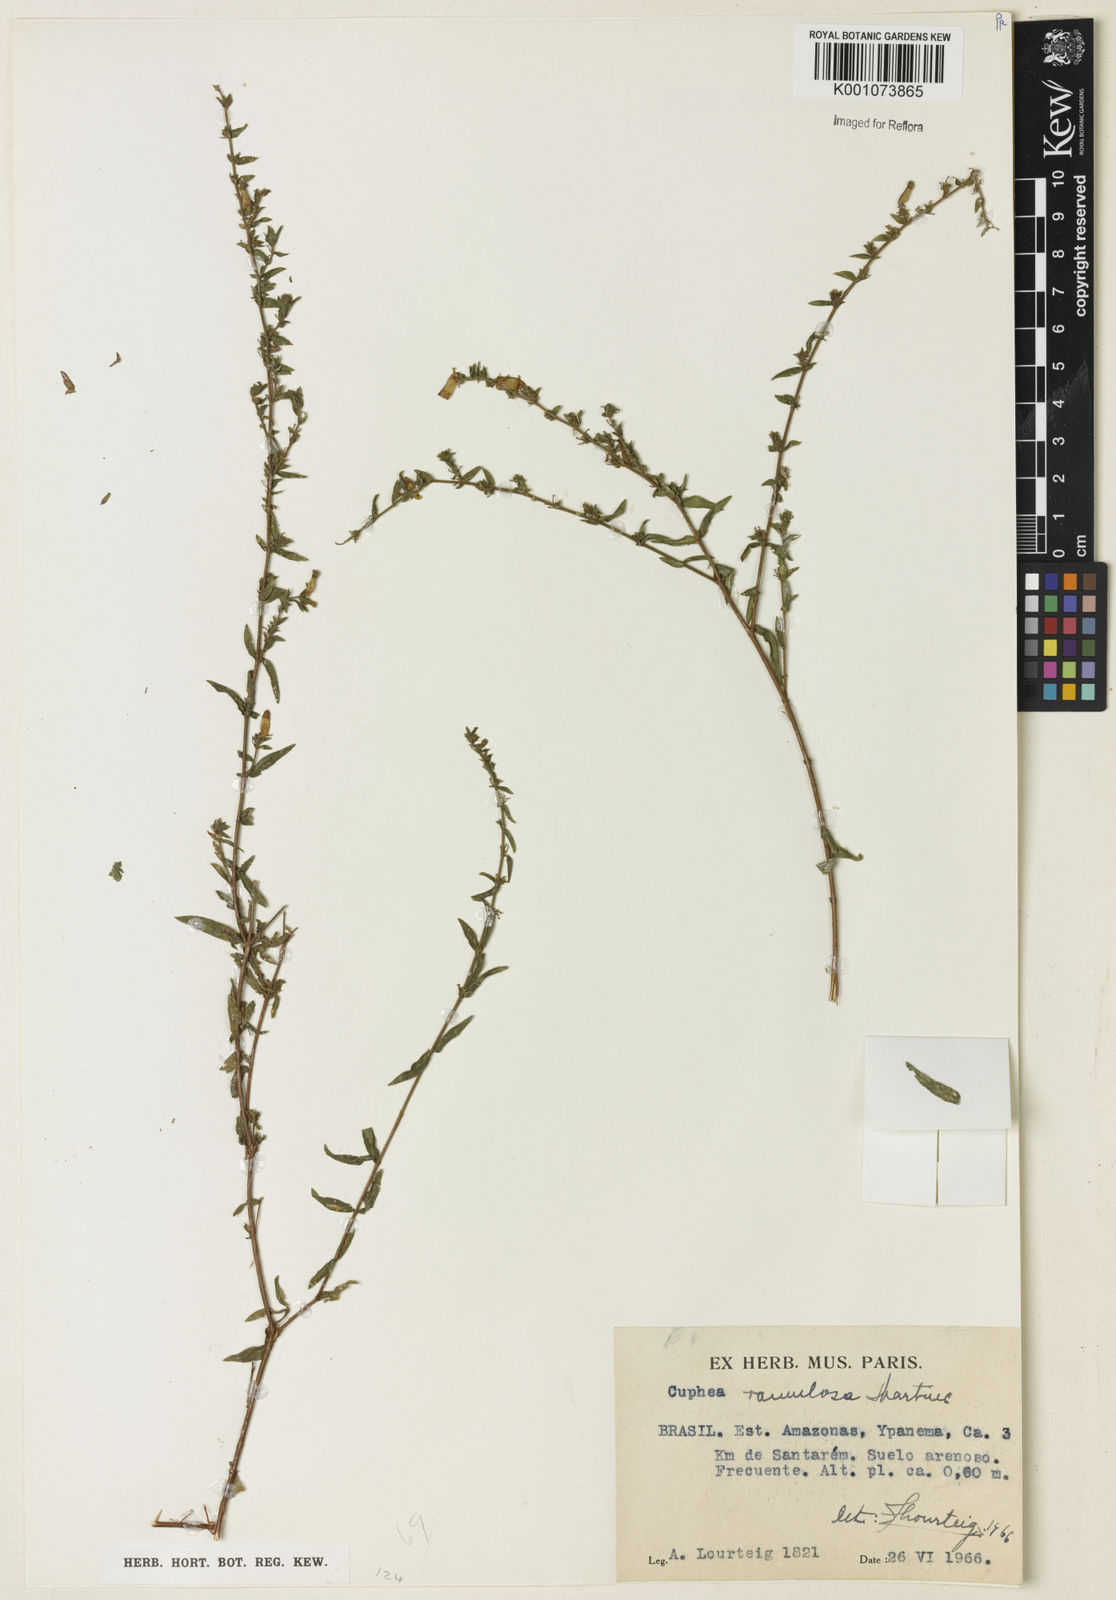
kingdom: Plantae
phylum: Tracheophyta
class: Magnoliopsida
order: Myrtales
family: Lythraceae
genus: Cuphea
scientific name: Cuphea antisyphilitica
